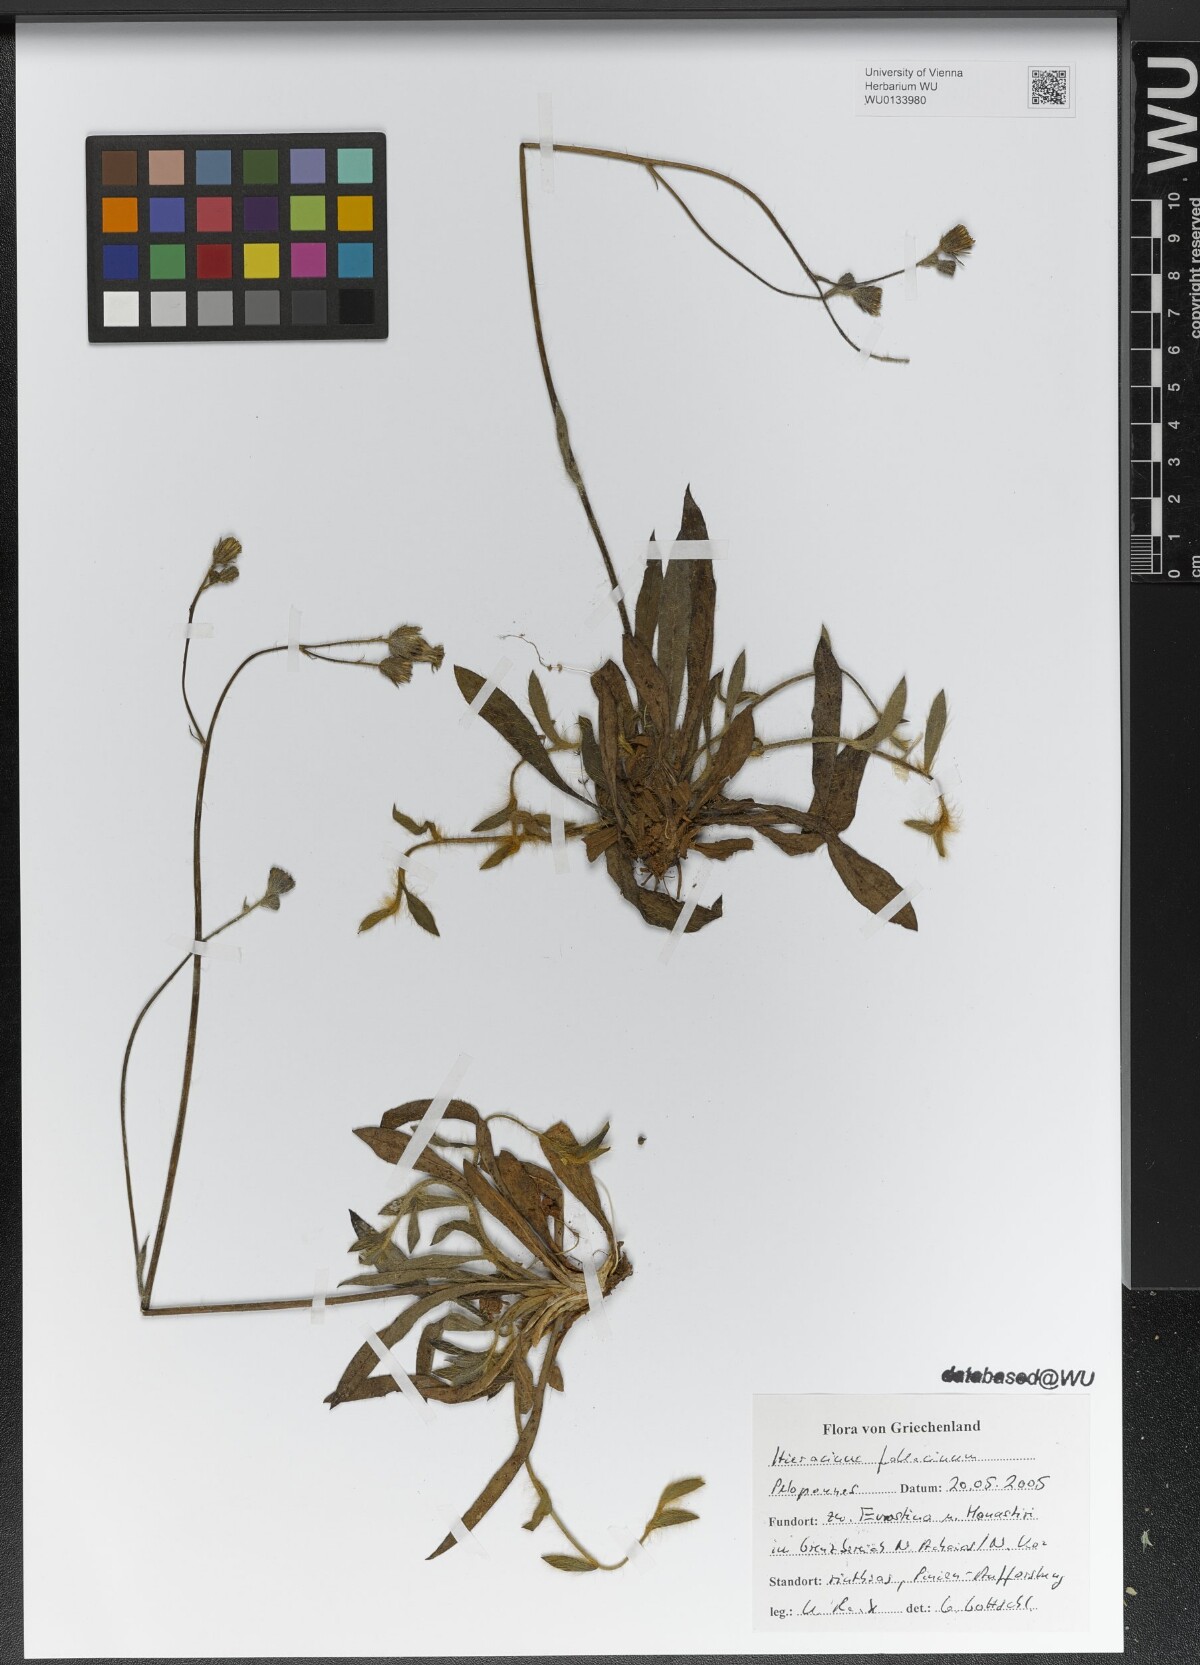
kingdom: Plantae
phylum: Tracheophyta
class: Magnoliopsida
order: Asterales
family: Asteraceae
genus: Pilosella
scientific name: Pilosella fallacina
